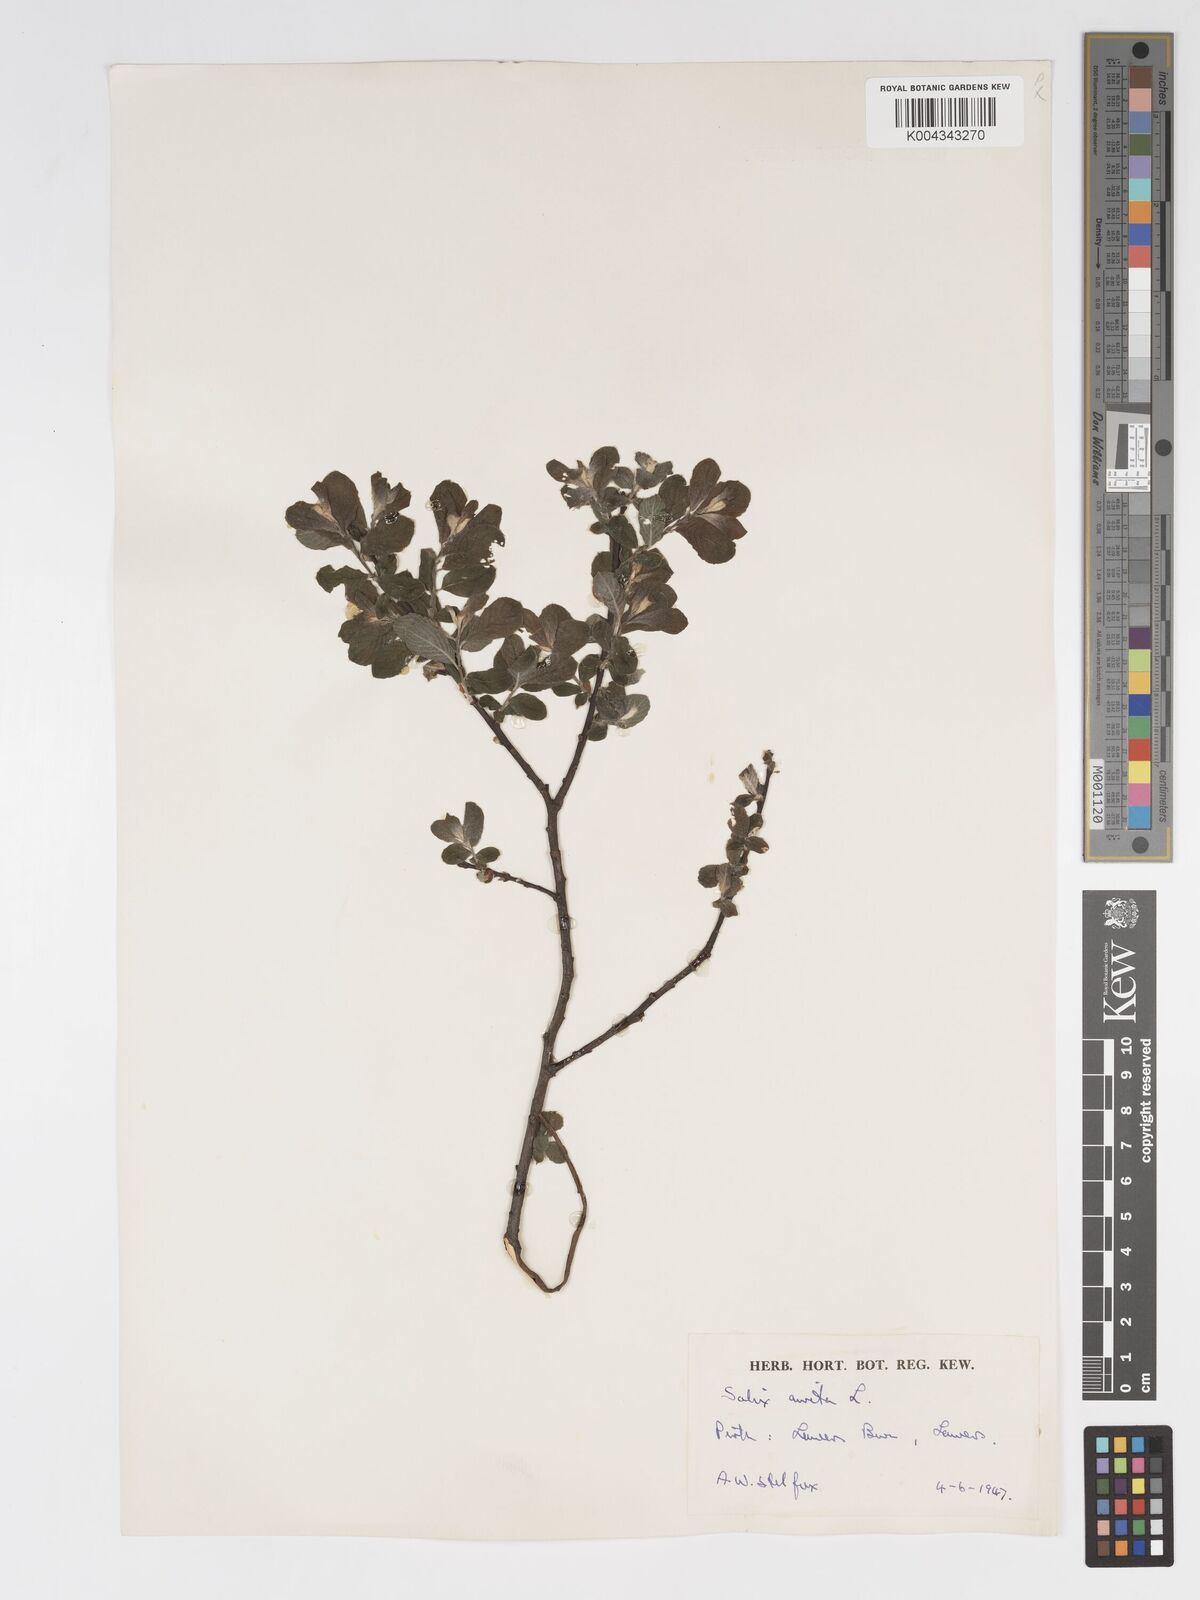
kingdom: Plantae
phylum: Tracheophyta
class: Magnoliopsida
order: Malpighiales
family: Salicaceae
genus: Salix
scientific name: Salix aurita
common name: Eared willow
